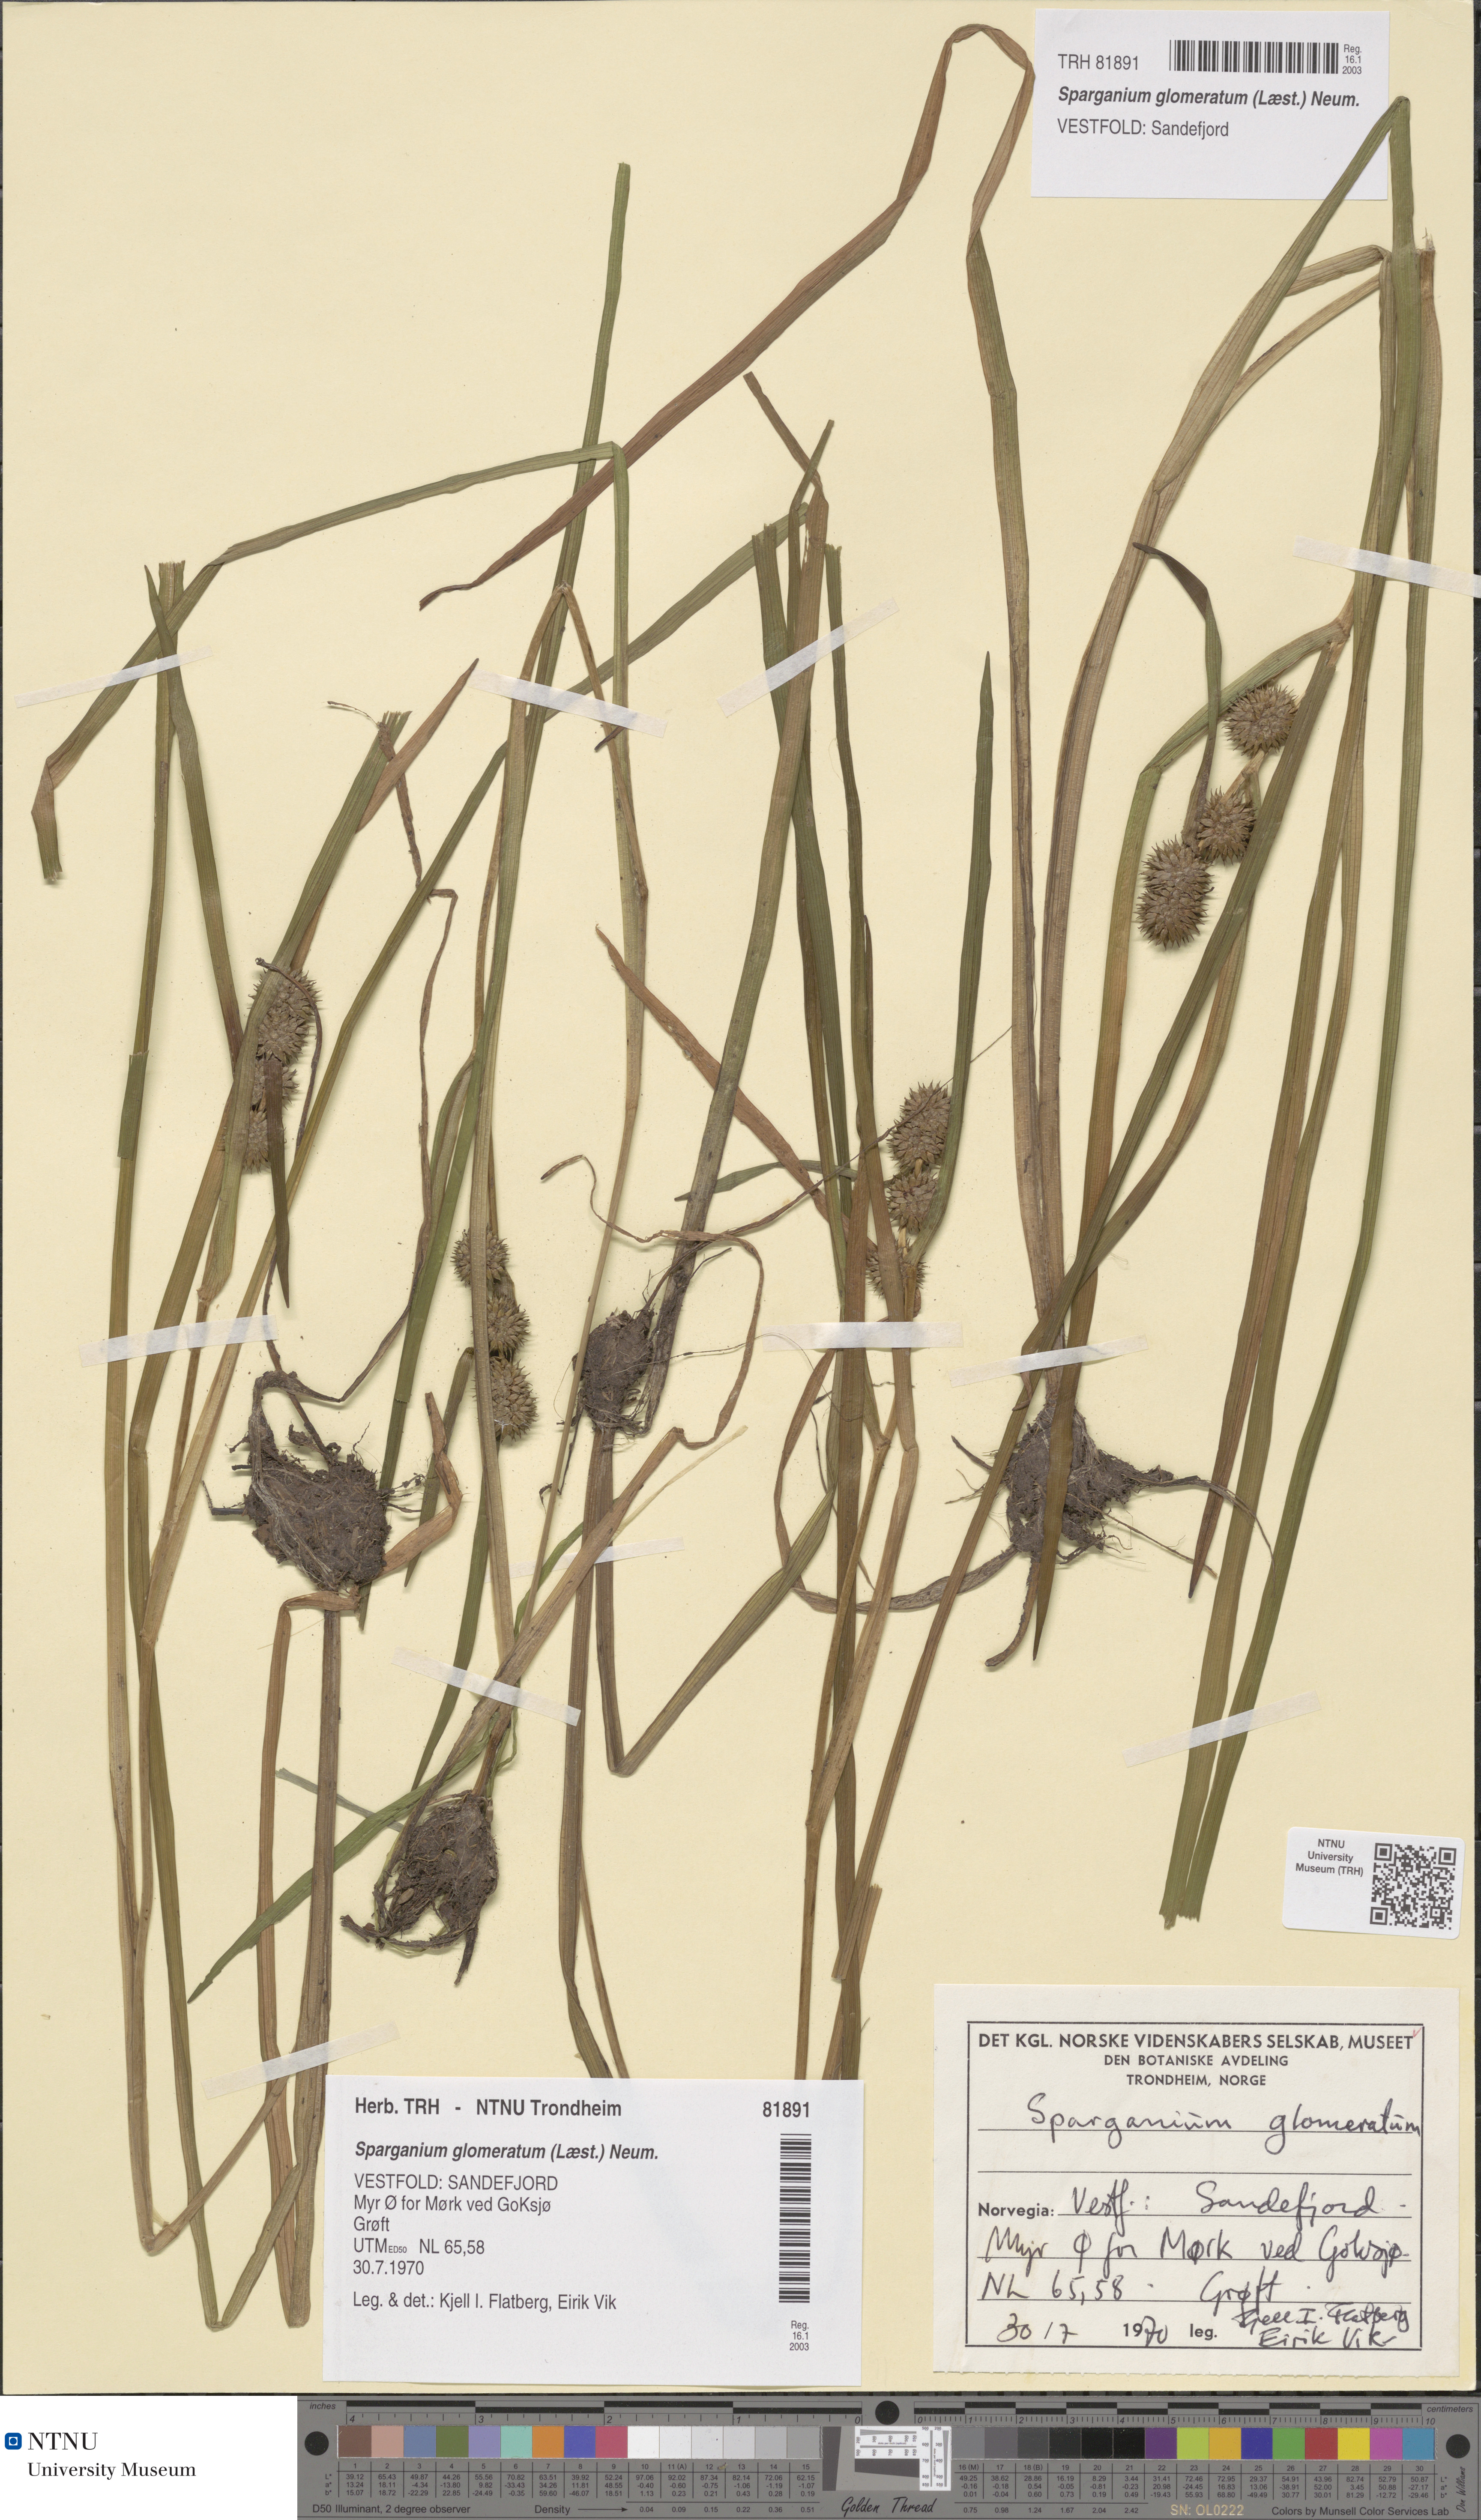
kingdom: Plantae
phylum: Tracheophyta
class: Liliopsida
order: Poales
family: Typhaceae
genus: Sparganium
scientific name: Sparganium glomeratum
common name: Clustered burreed
